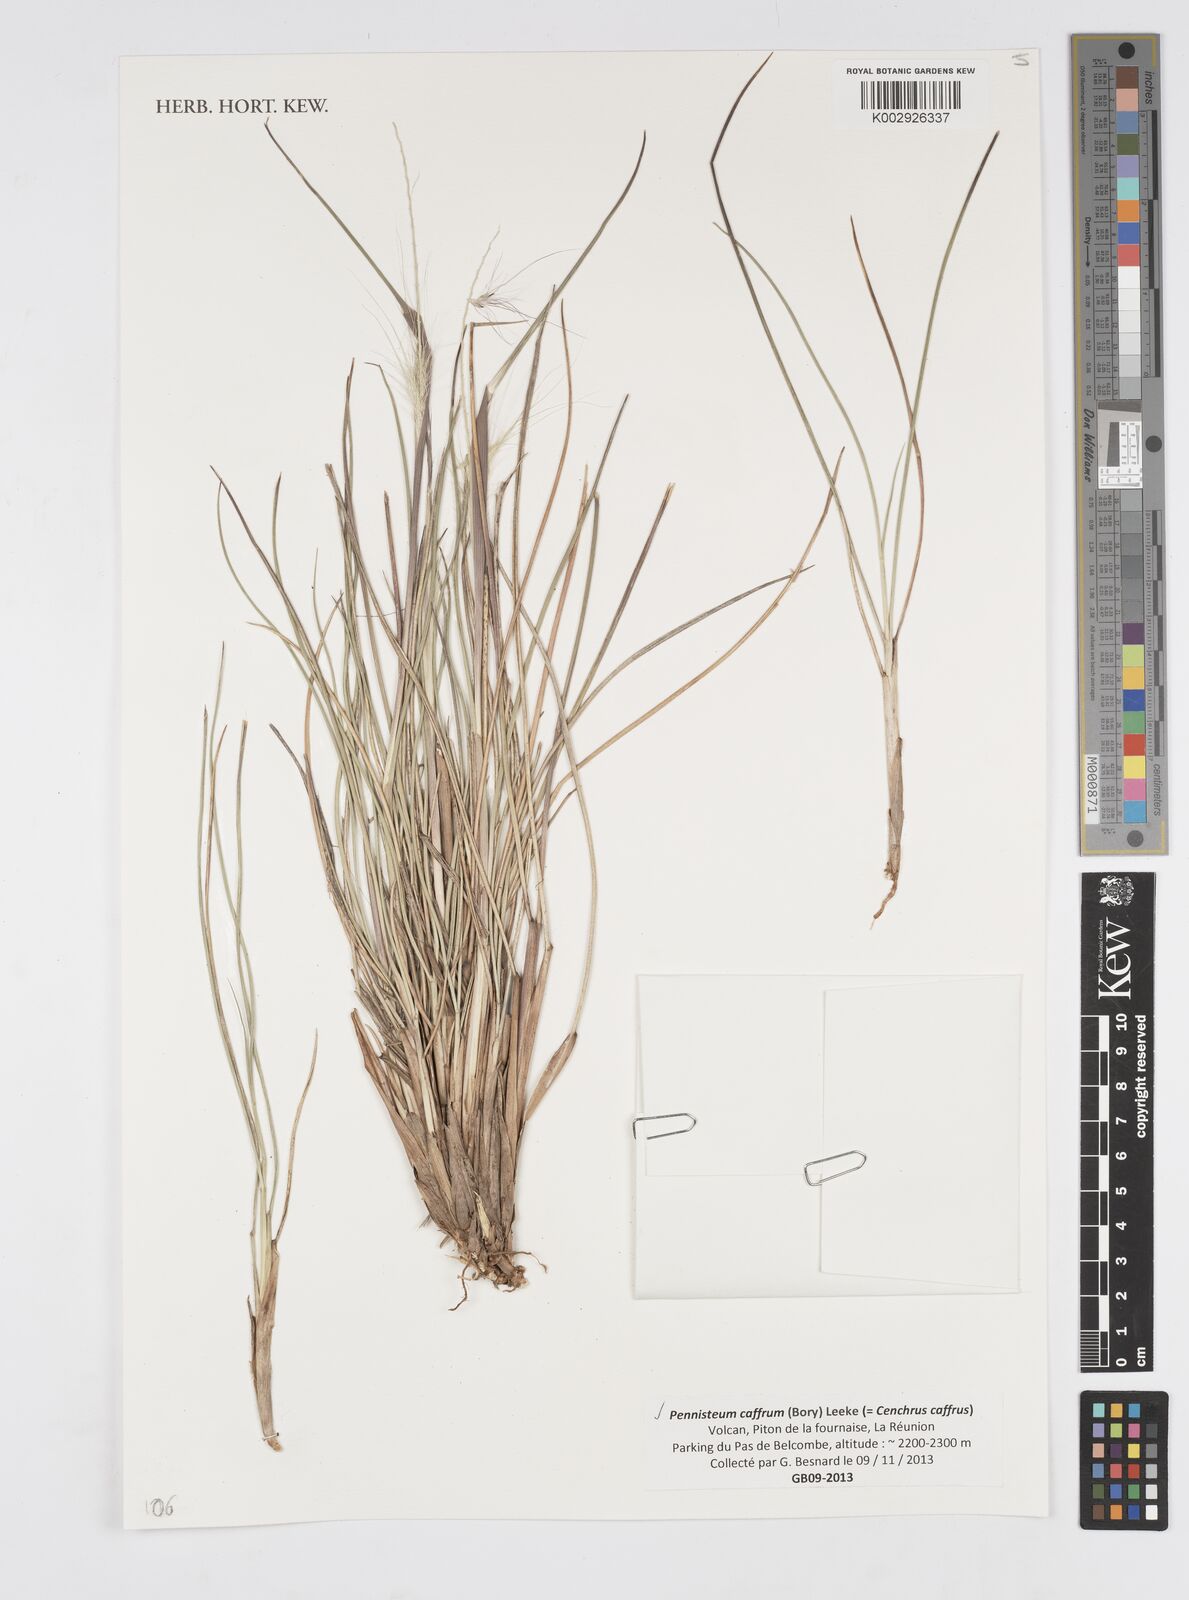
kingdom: Plantae
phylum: Tracheophyta
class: Liliopsida
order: Poales
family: Poaceae
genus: Cenchrus
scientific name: Cenchrus cafer
